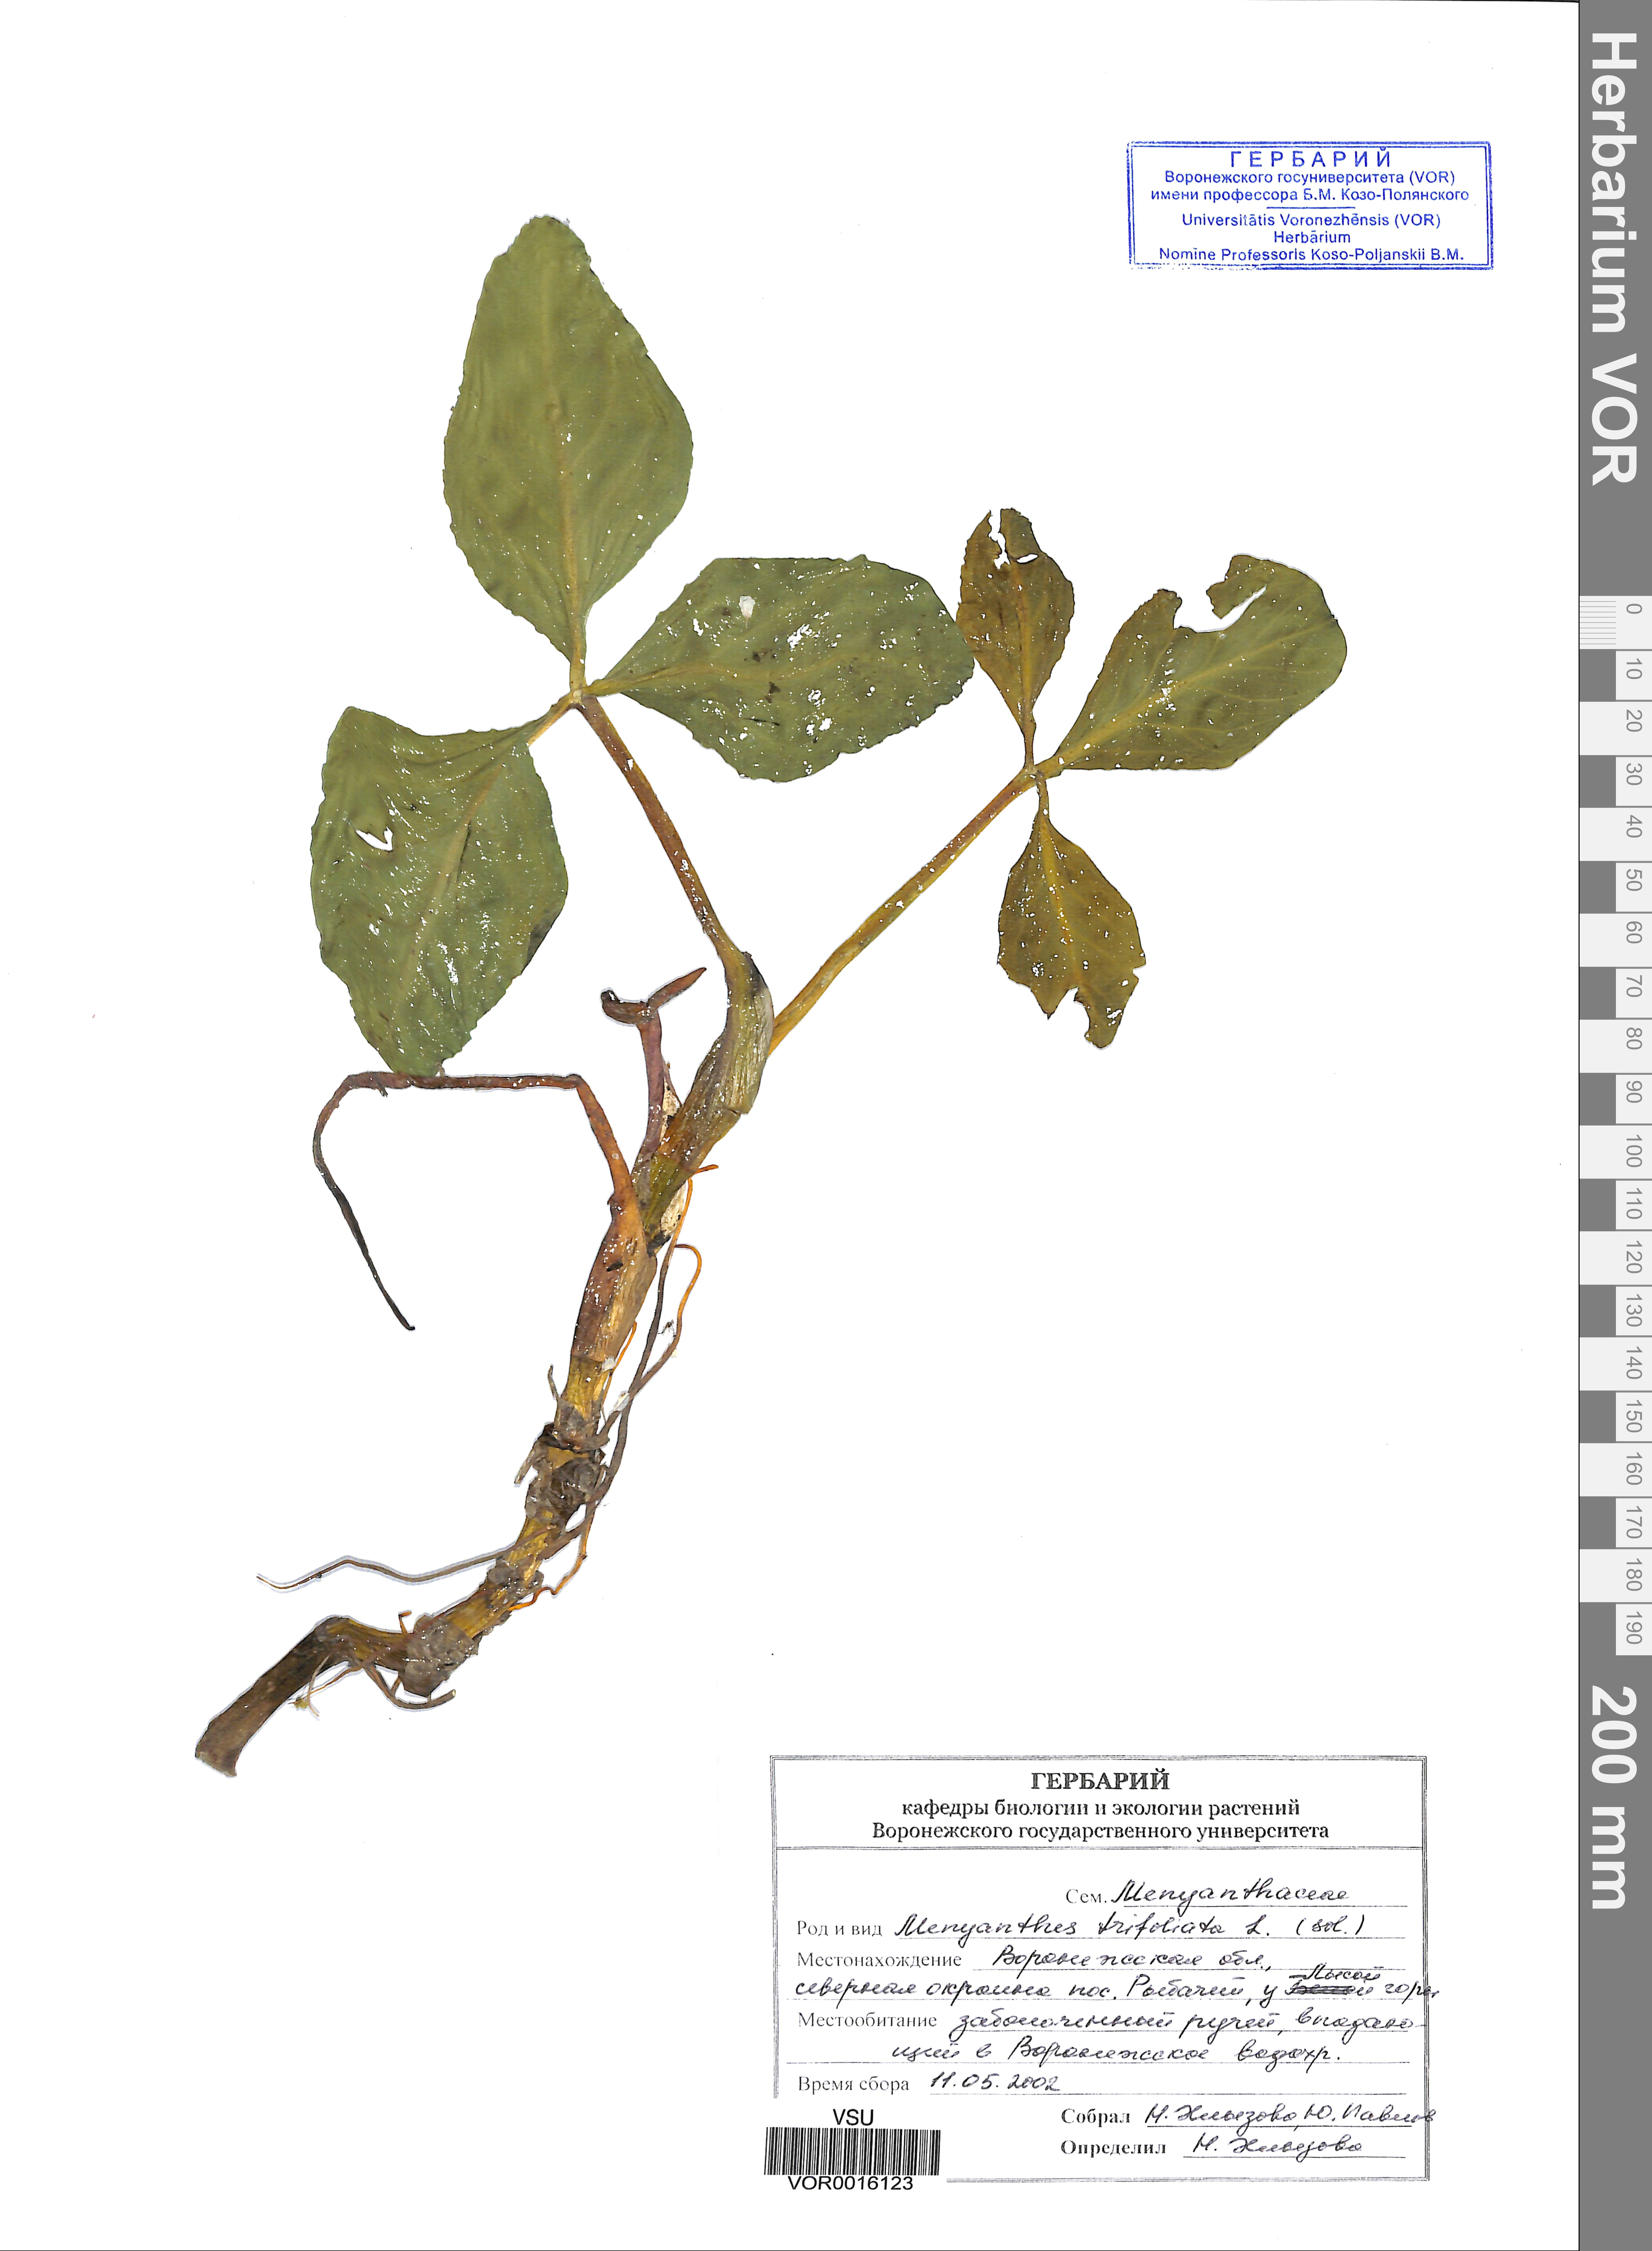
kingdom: Plantae
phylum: Tracheophyta
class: Magnoliopsida
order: Asterales
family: Menyanthaceae
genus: Menyanthes
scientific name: Menyanthes trifoliata
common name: Bogbean
